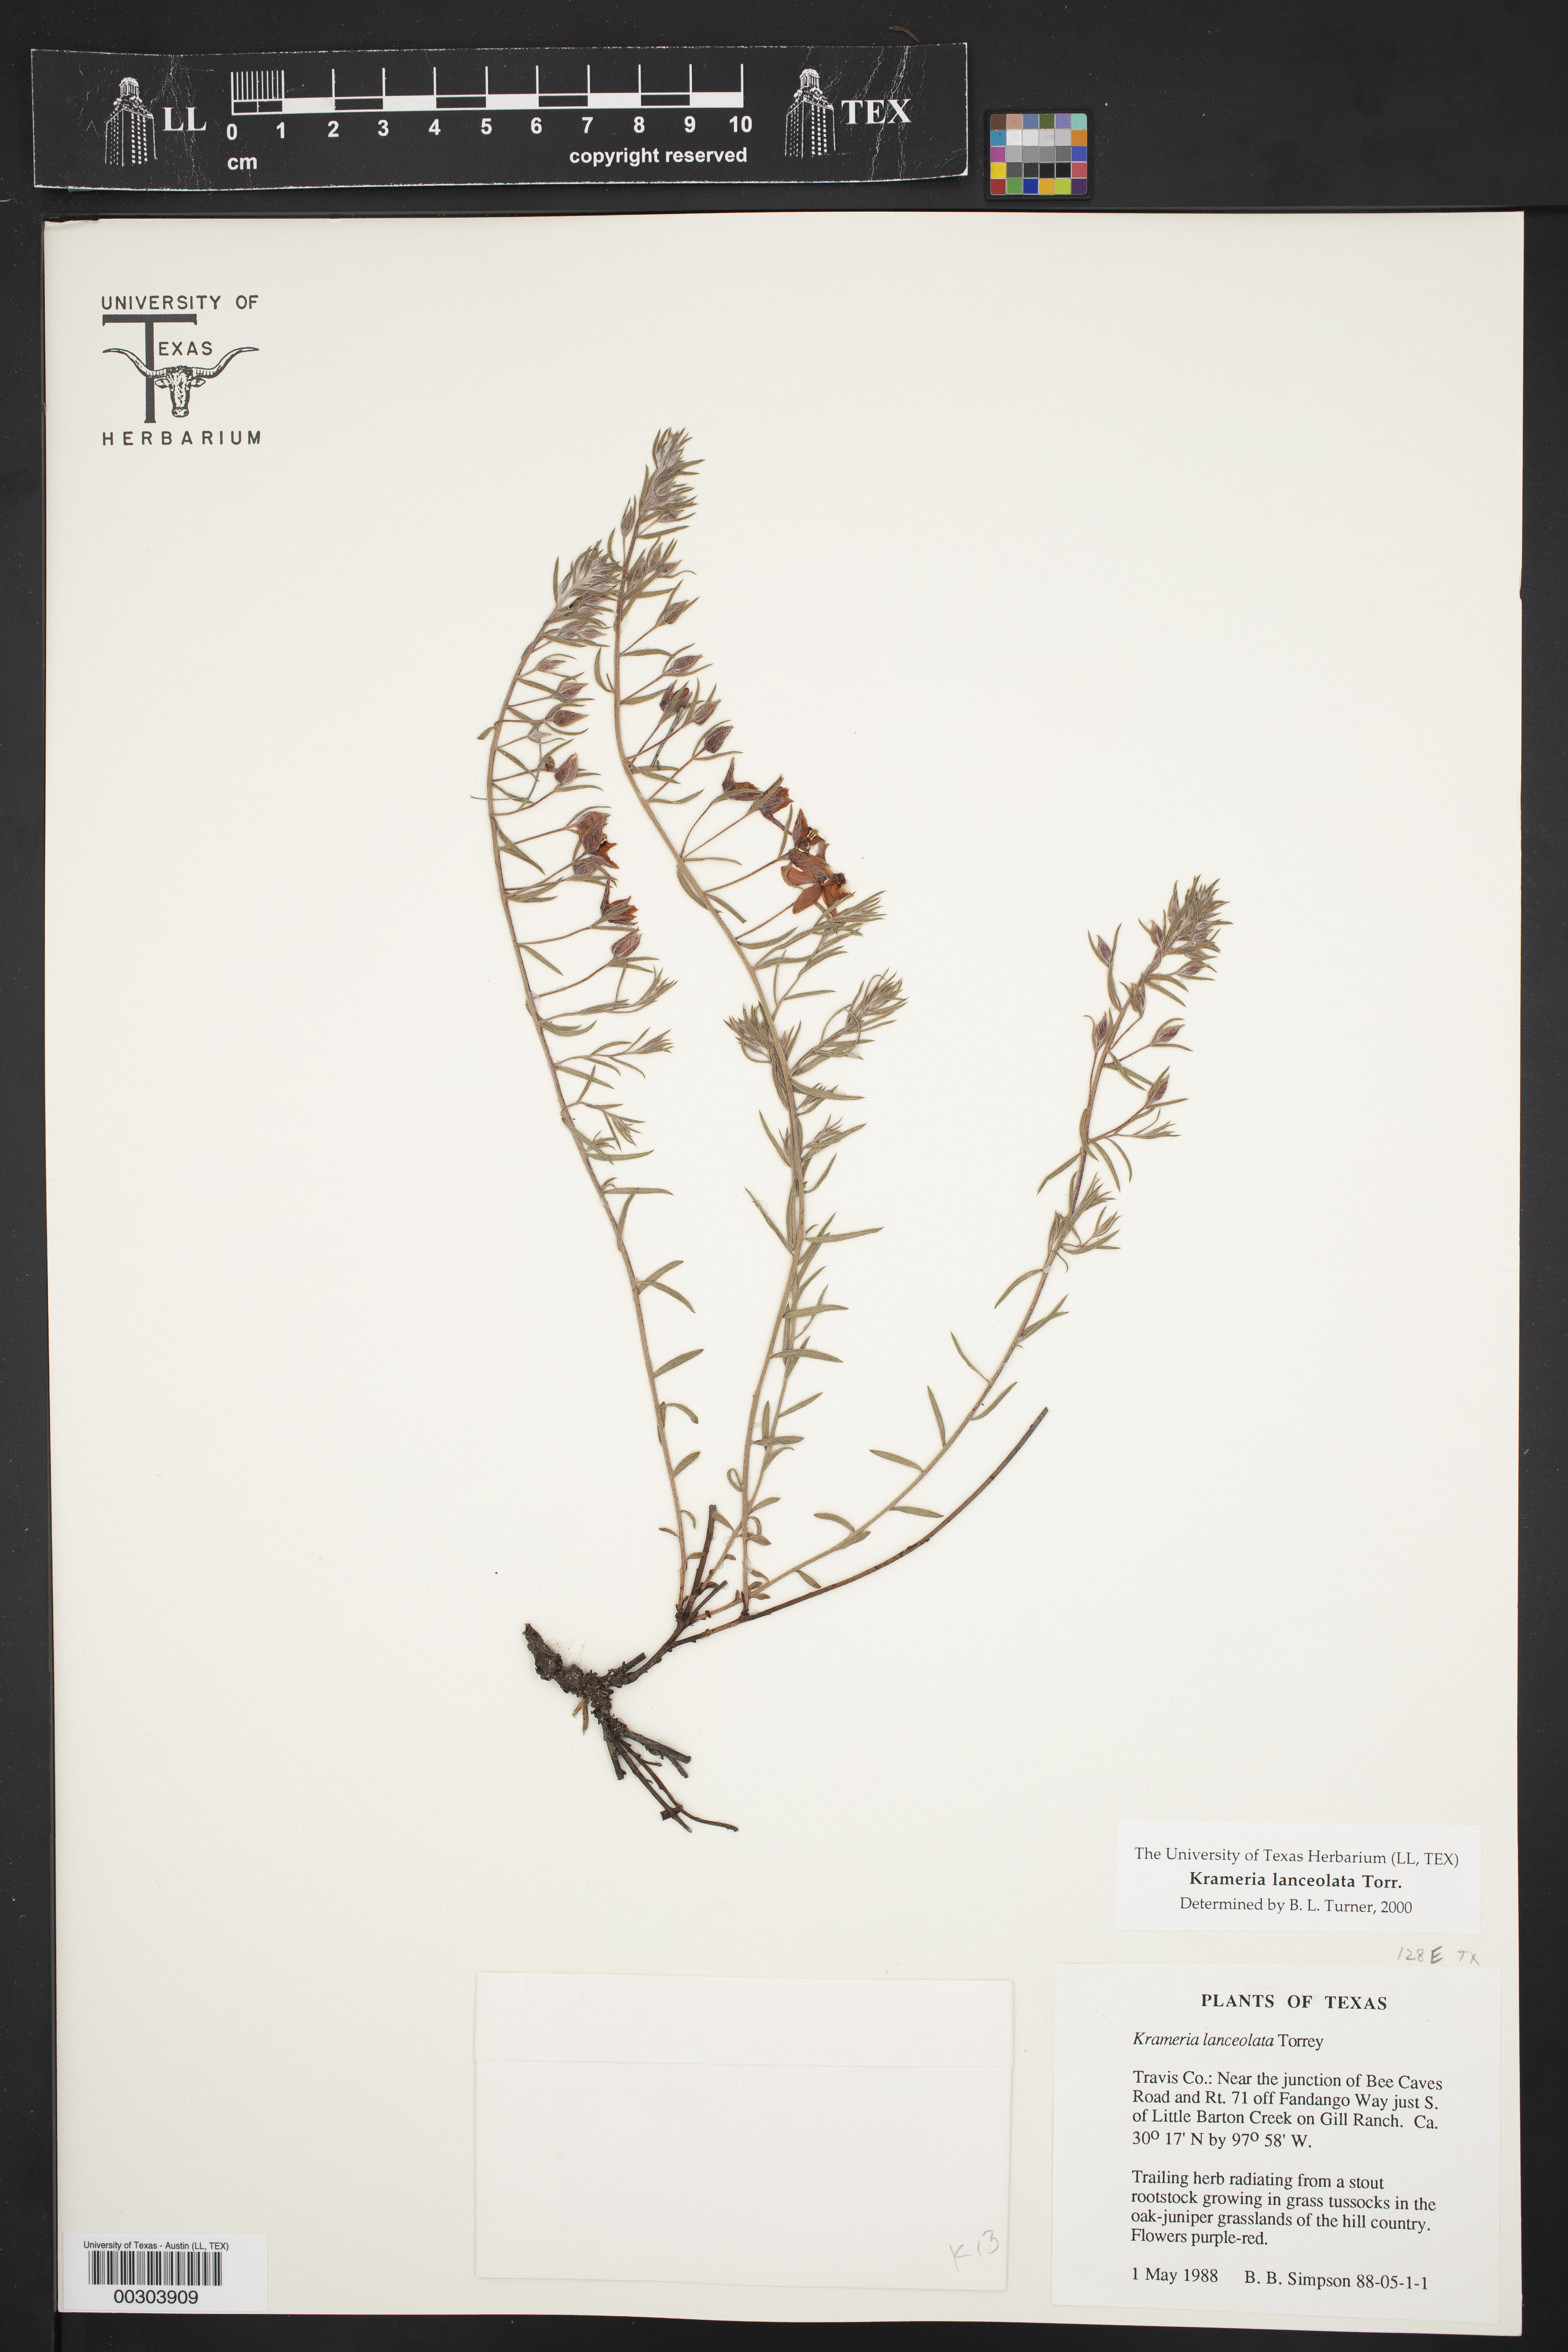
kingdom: Plantae
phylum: Tracheophyta
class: Magnoliopsida
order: Zygophyllales
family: Krameriaceae
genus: Krameria
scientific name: Krameria lanceolata
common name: Ratany
